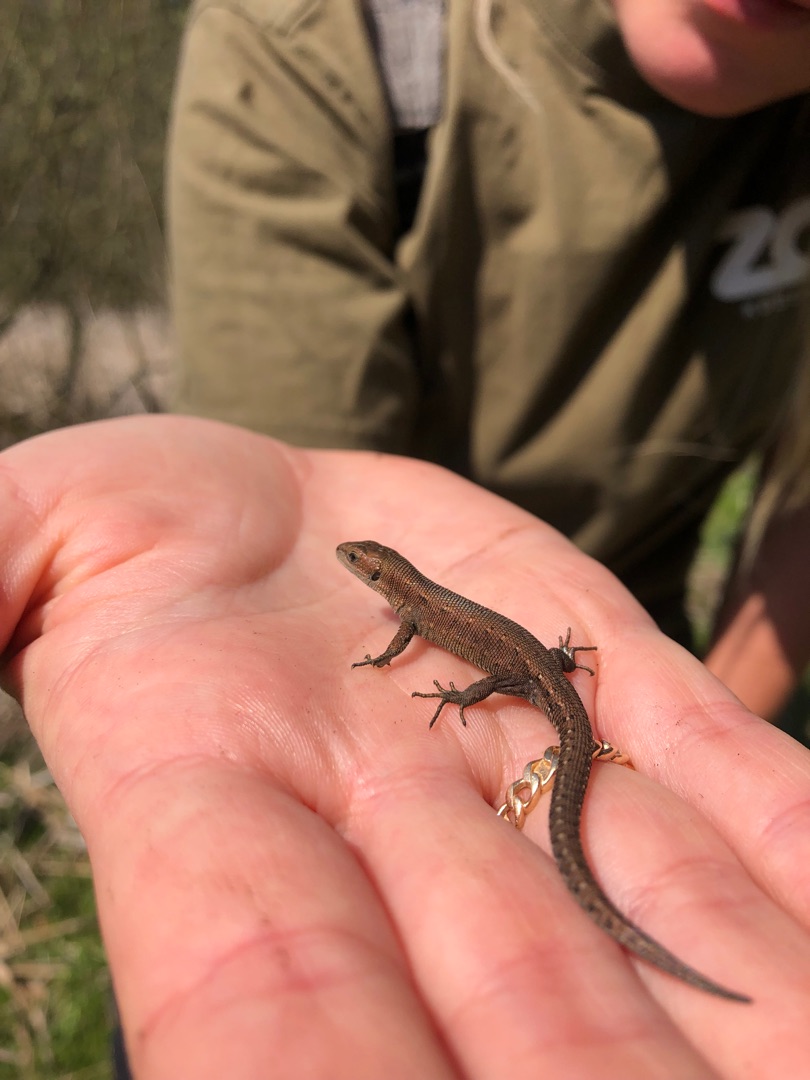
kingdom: Animalia
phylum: Chordata
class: Squamata
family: Lacertidae
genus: Zootoca
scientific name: Zootoca vivipara
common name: Skovfirben
